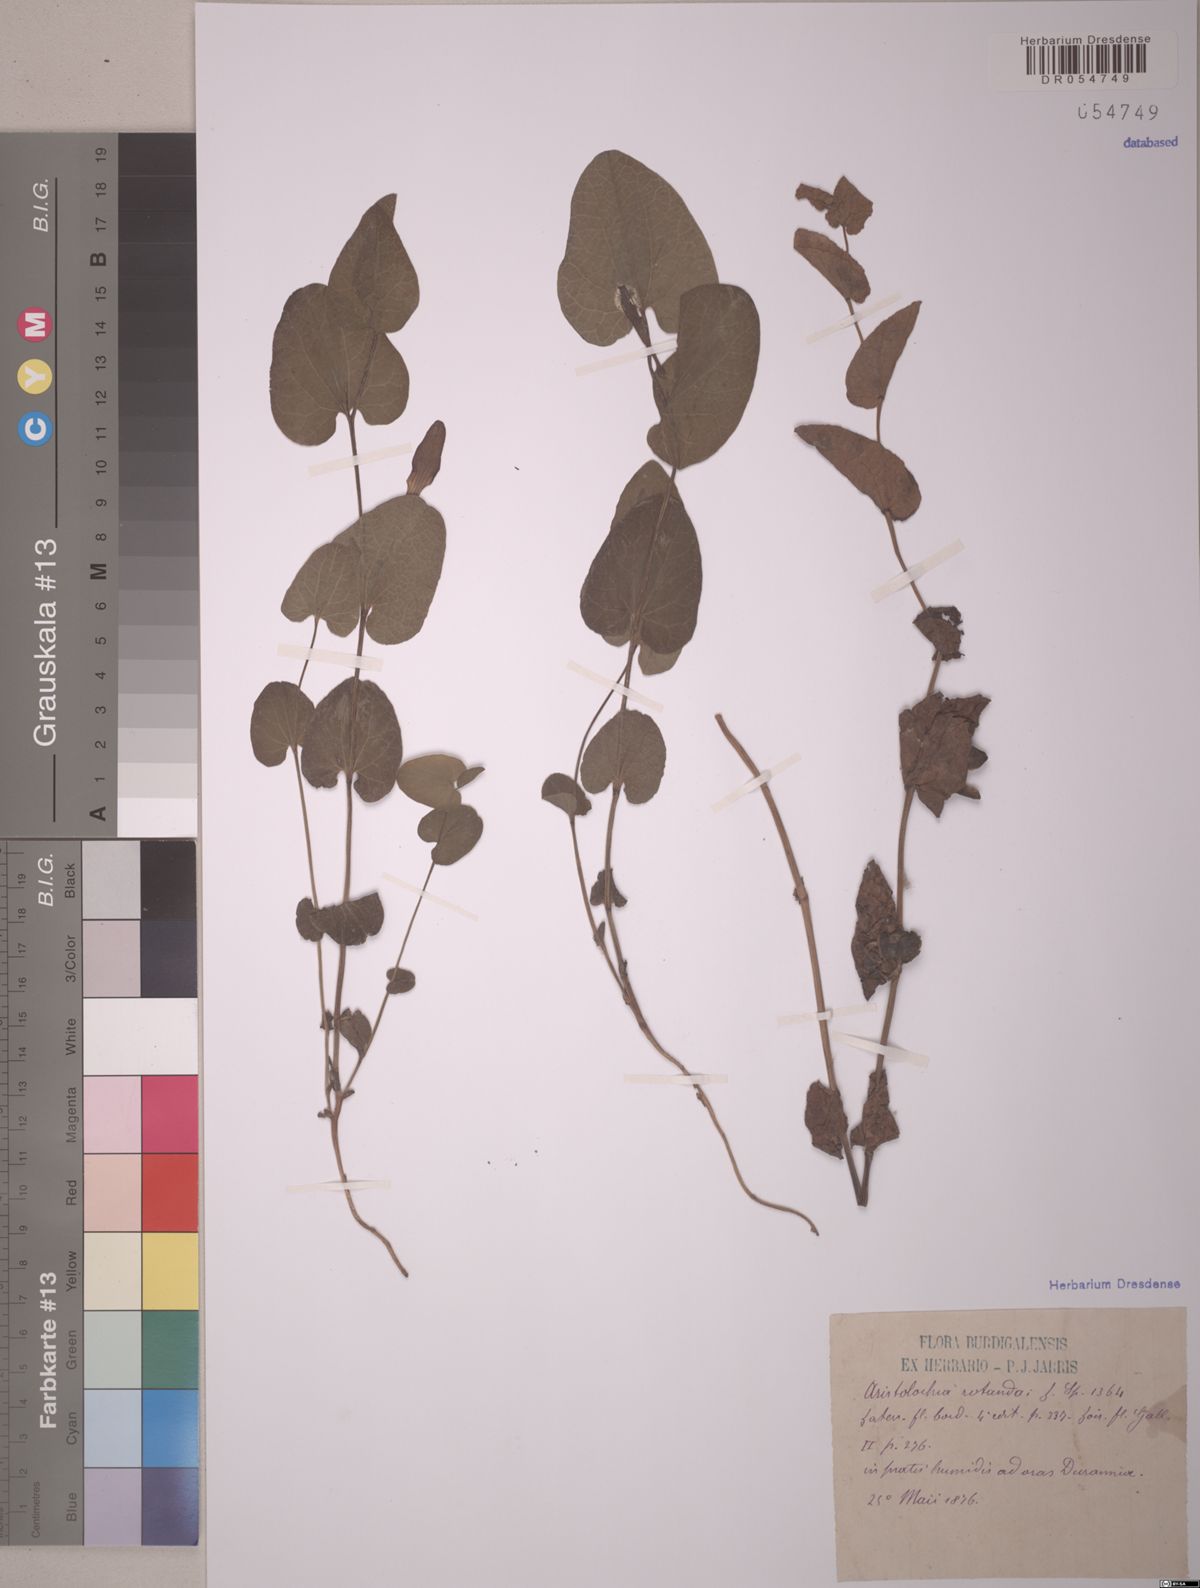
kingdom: Plantae
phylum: Tracheophyta
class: Magnoliopsida
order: Piperales
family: Aristolochiaceae
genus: Aristolochia
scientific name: Aristolochia rotunda
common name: Smearwort
